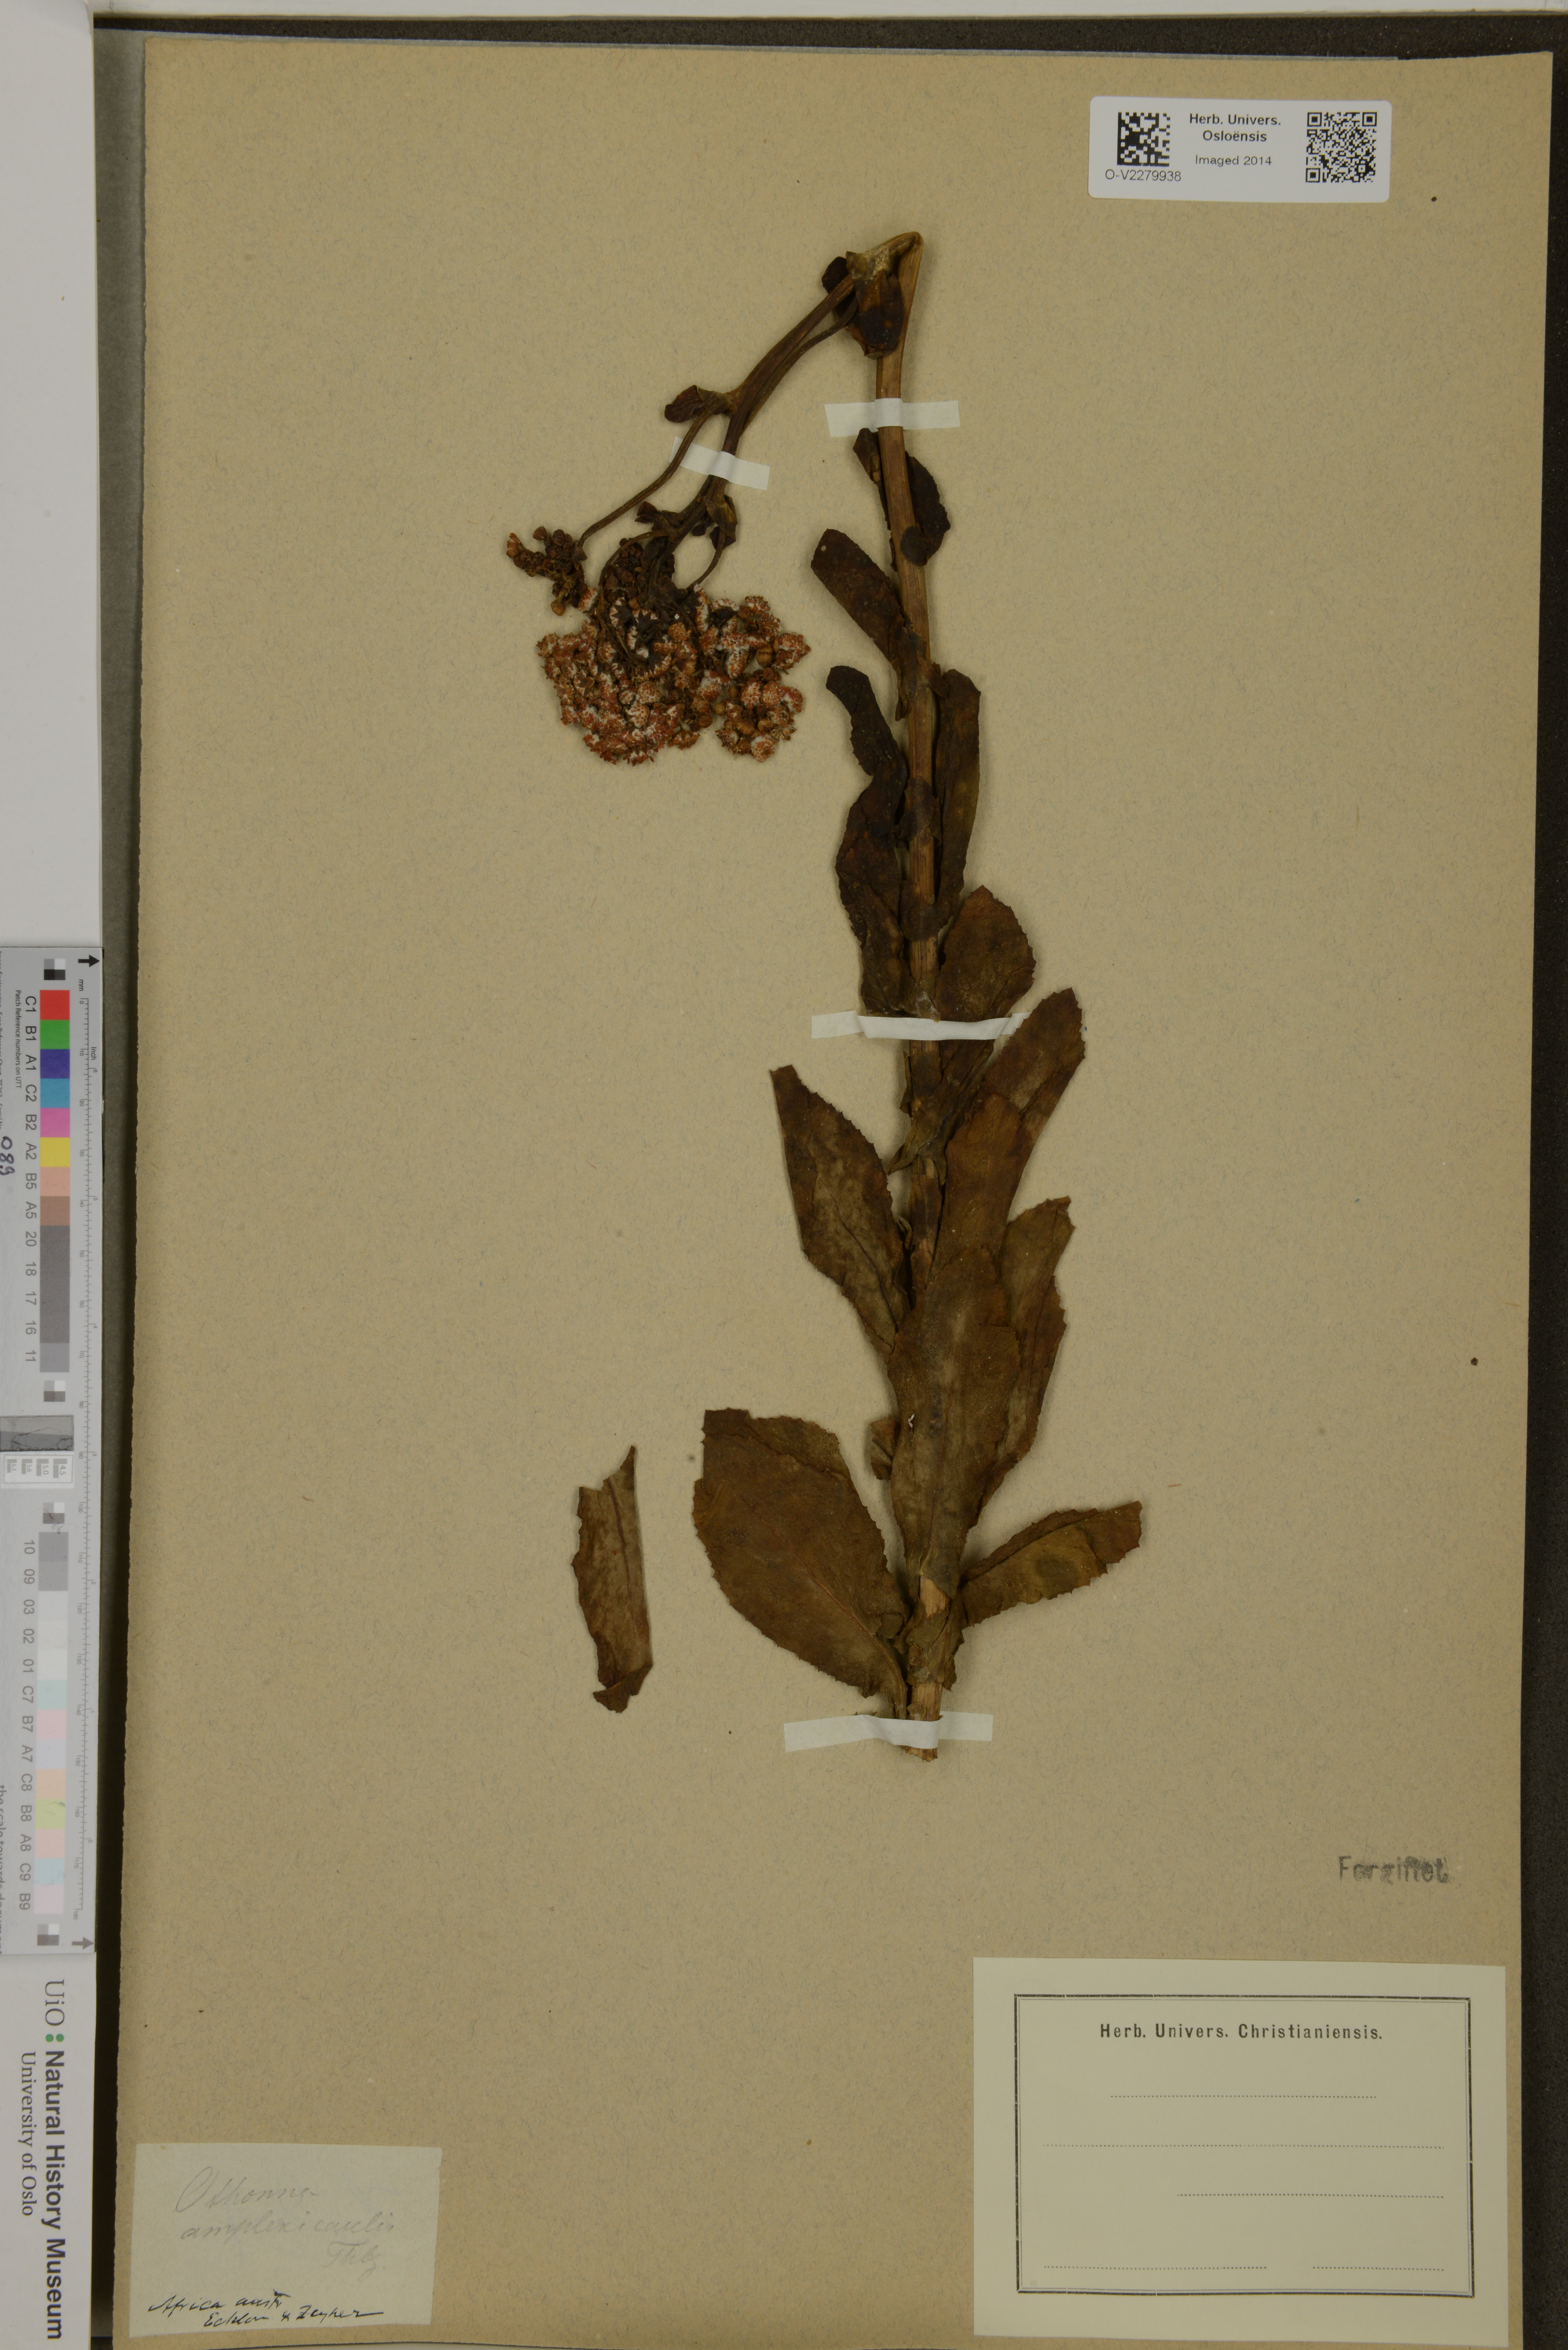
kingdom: Plantae
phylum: Tracheophyta
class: Magnoliopsida
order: Asterales
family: Asteraceae
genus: Othonna
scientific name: Othonna
